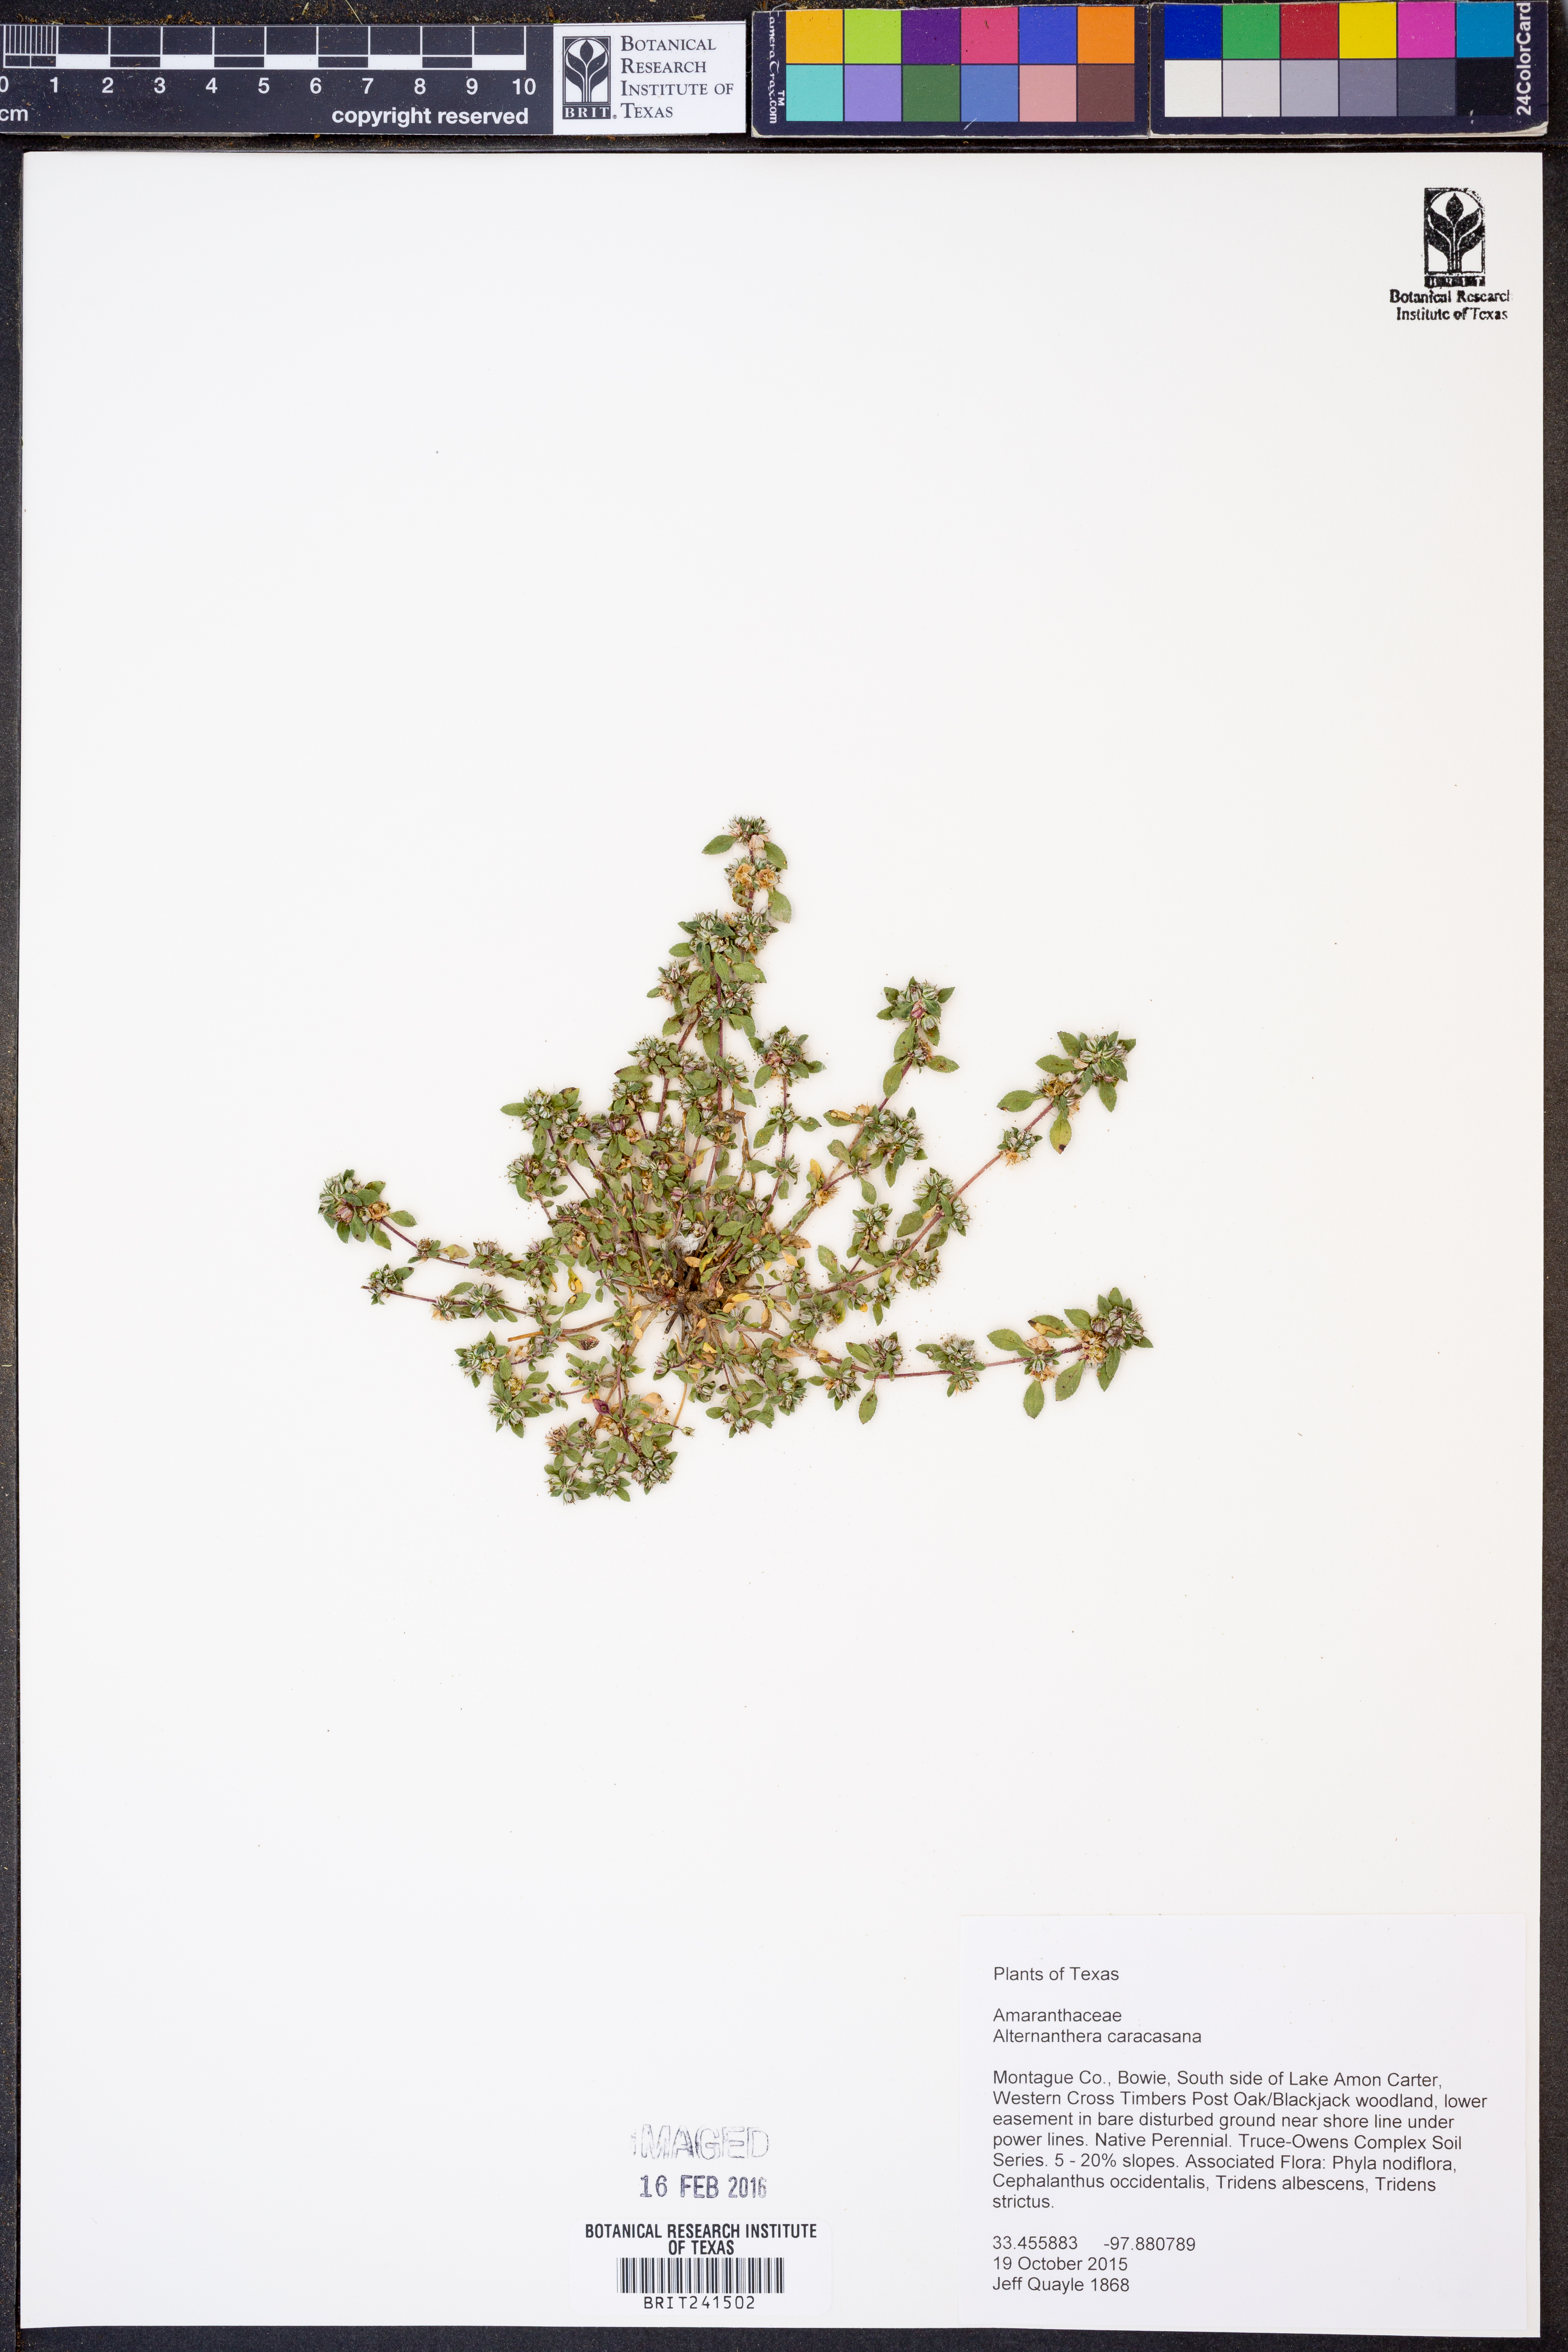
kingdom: Plantae
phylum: Tracheophyta
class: Magnoliopsida
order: Caryophyllales
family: Amaranthaceae
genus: Alternanthera
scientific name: Alternanthera caracasana
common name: Washerwoman
